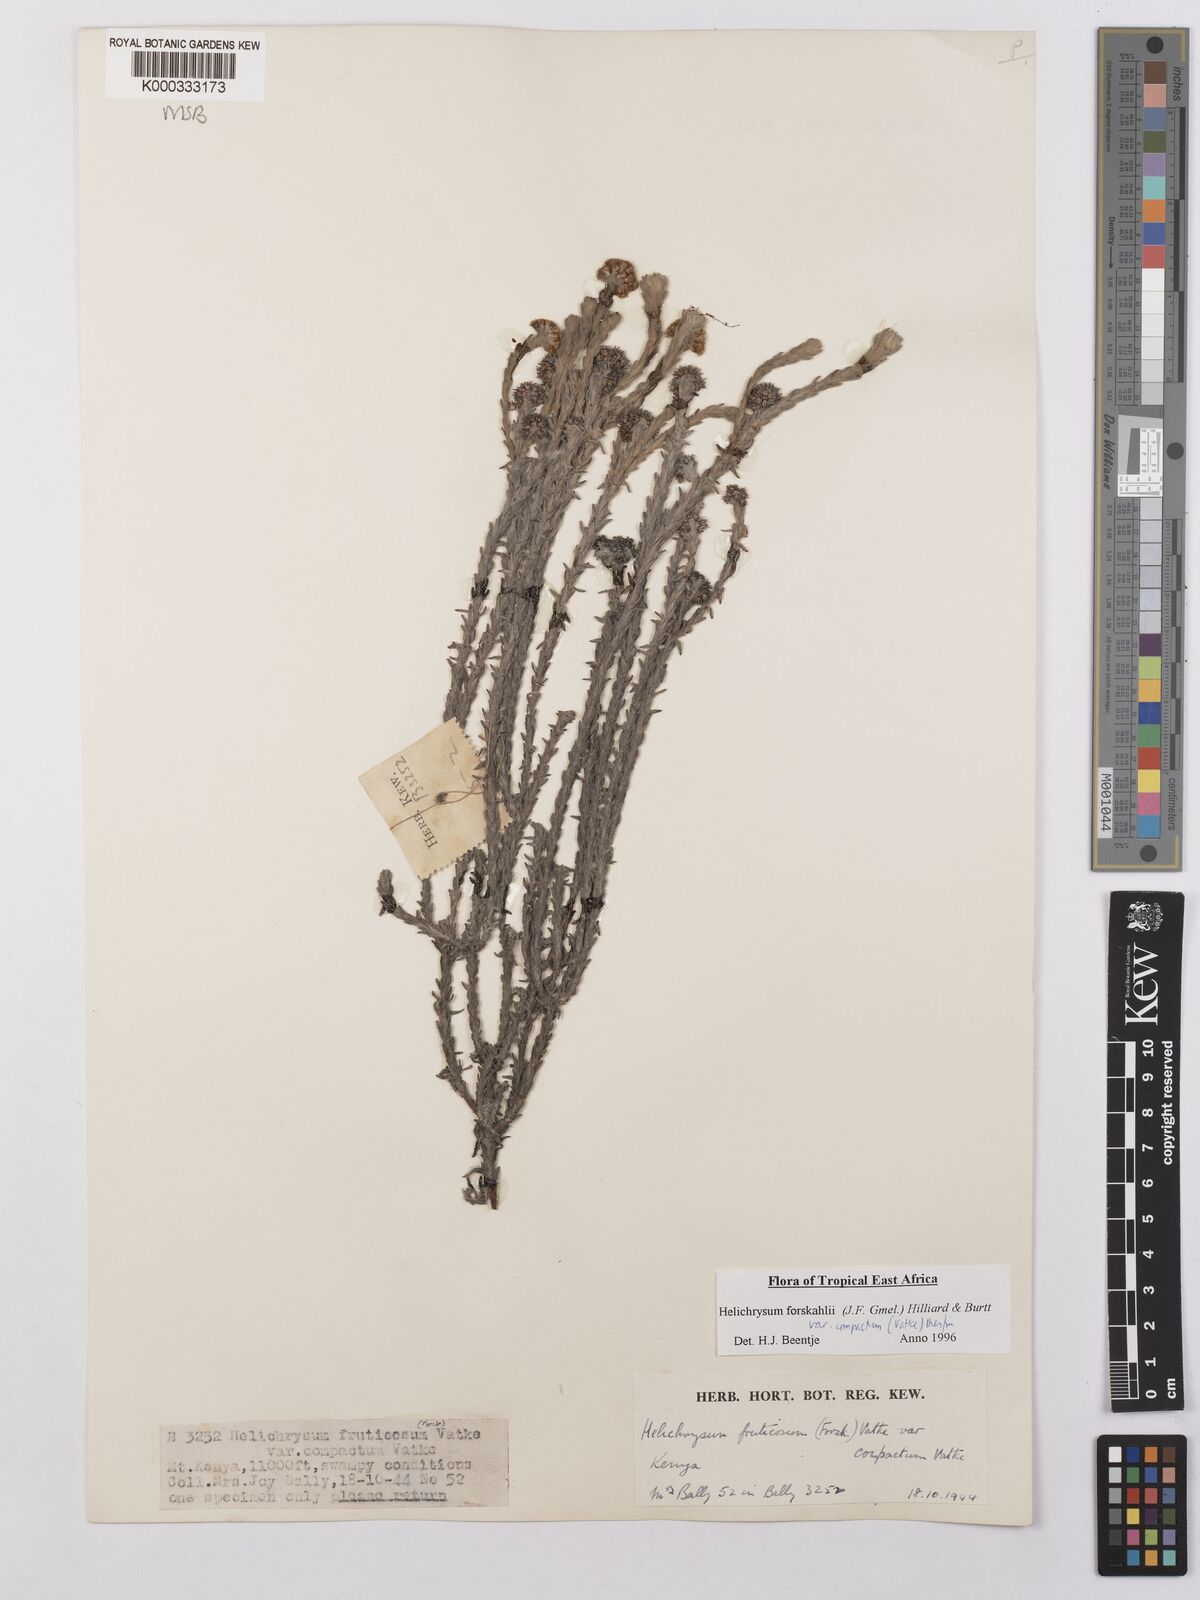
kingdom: Plantae
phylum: Tracheophyta
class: Magnoliopsida
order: Asterales
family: Asteraceae
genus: Helichrysum
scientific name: Helichrysum forskahlii
